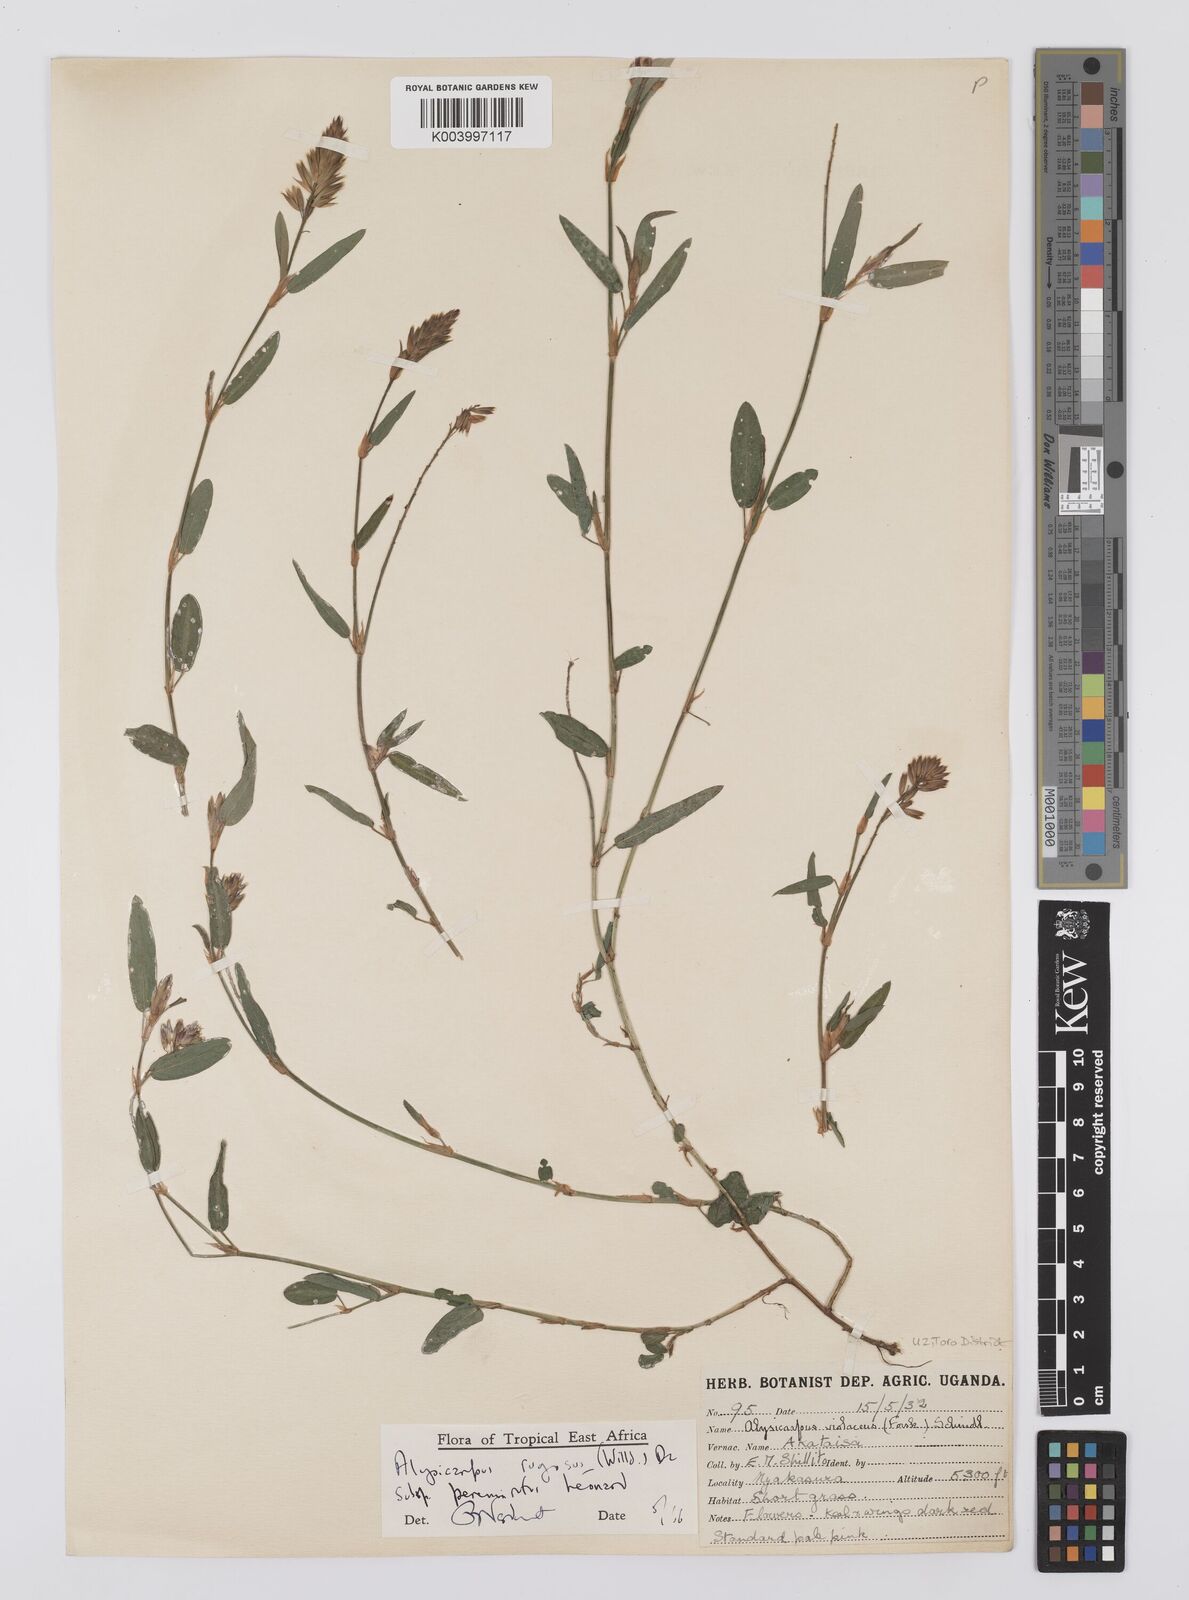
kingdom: Plantae
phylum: Tracheophyta
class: Magnoliopsida
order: Fabales
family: Fabaceae
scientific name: Fabaceae
